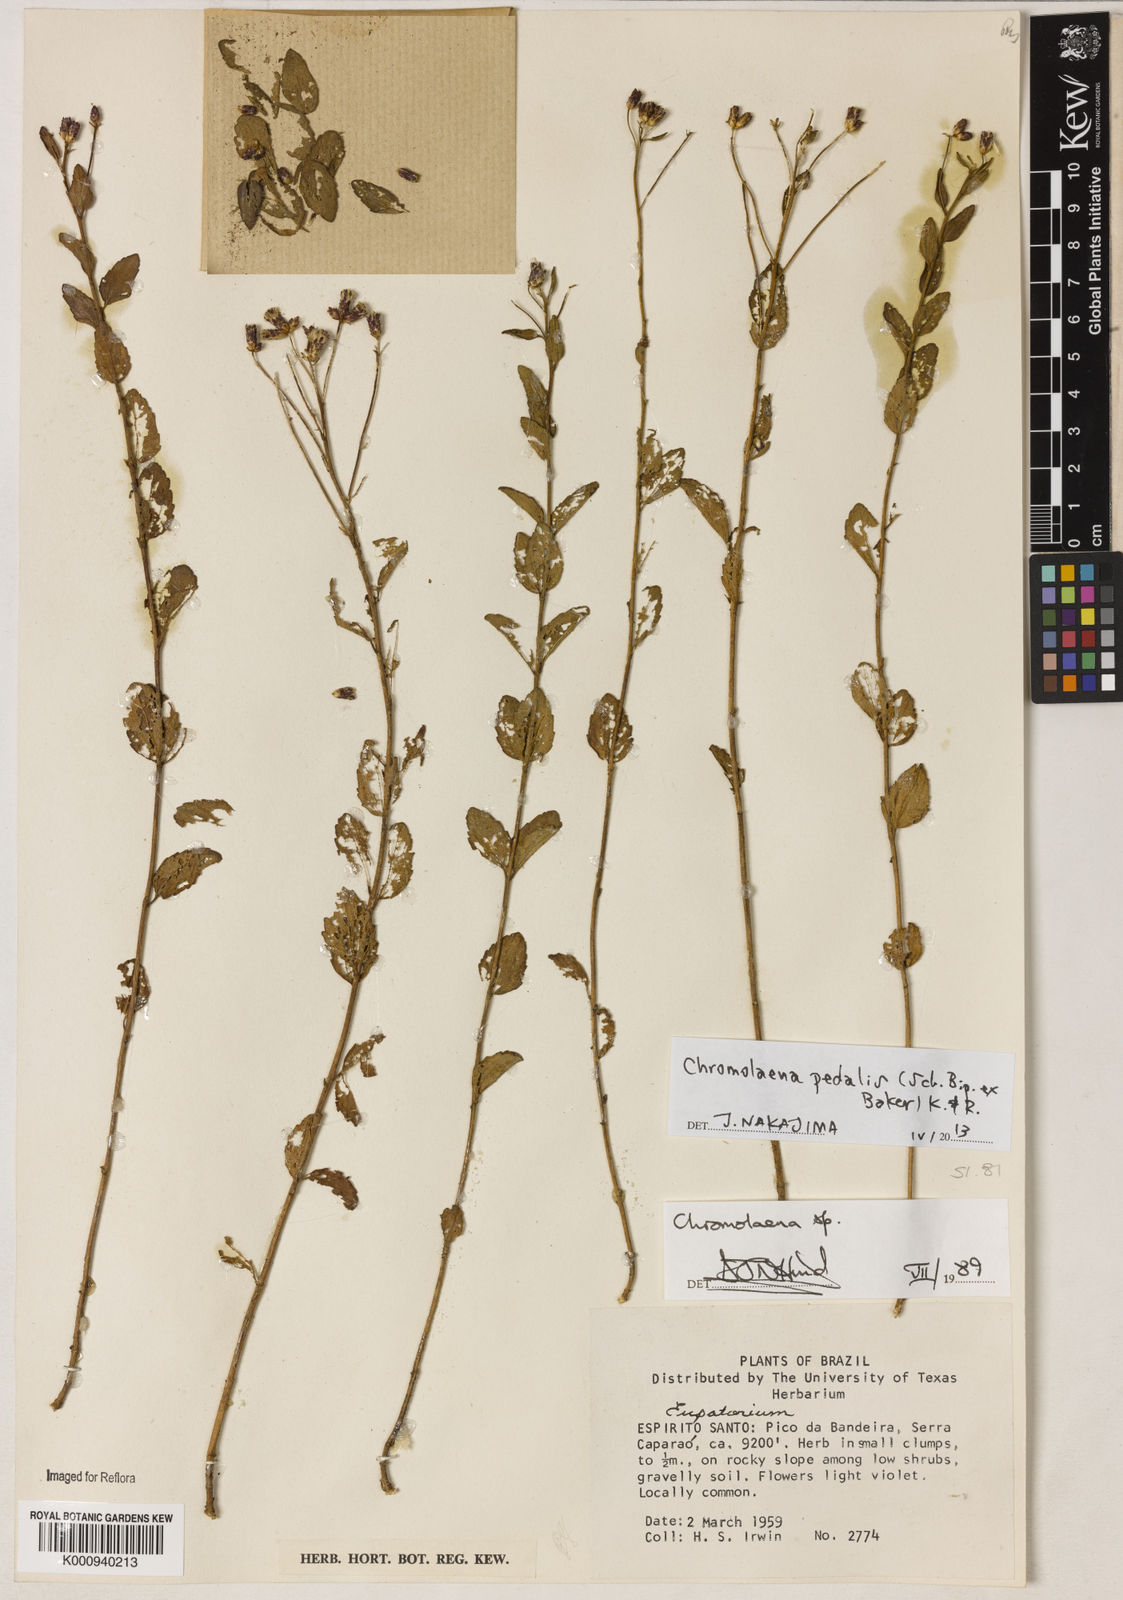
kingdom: Plantae
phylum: Tracheophyta
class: Magnoliopsida
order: Asterales
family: Asteraceae
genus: Chromolaena
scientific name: Chromolaena pedalis
